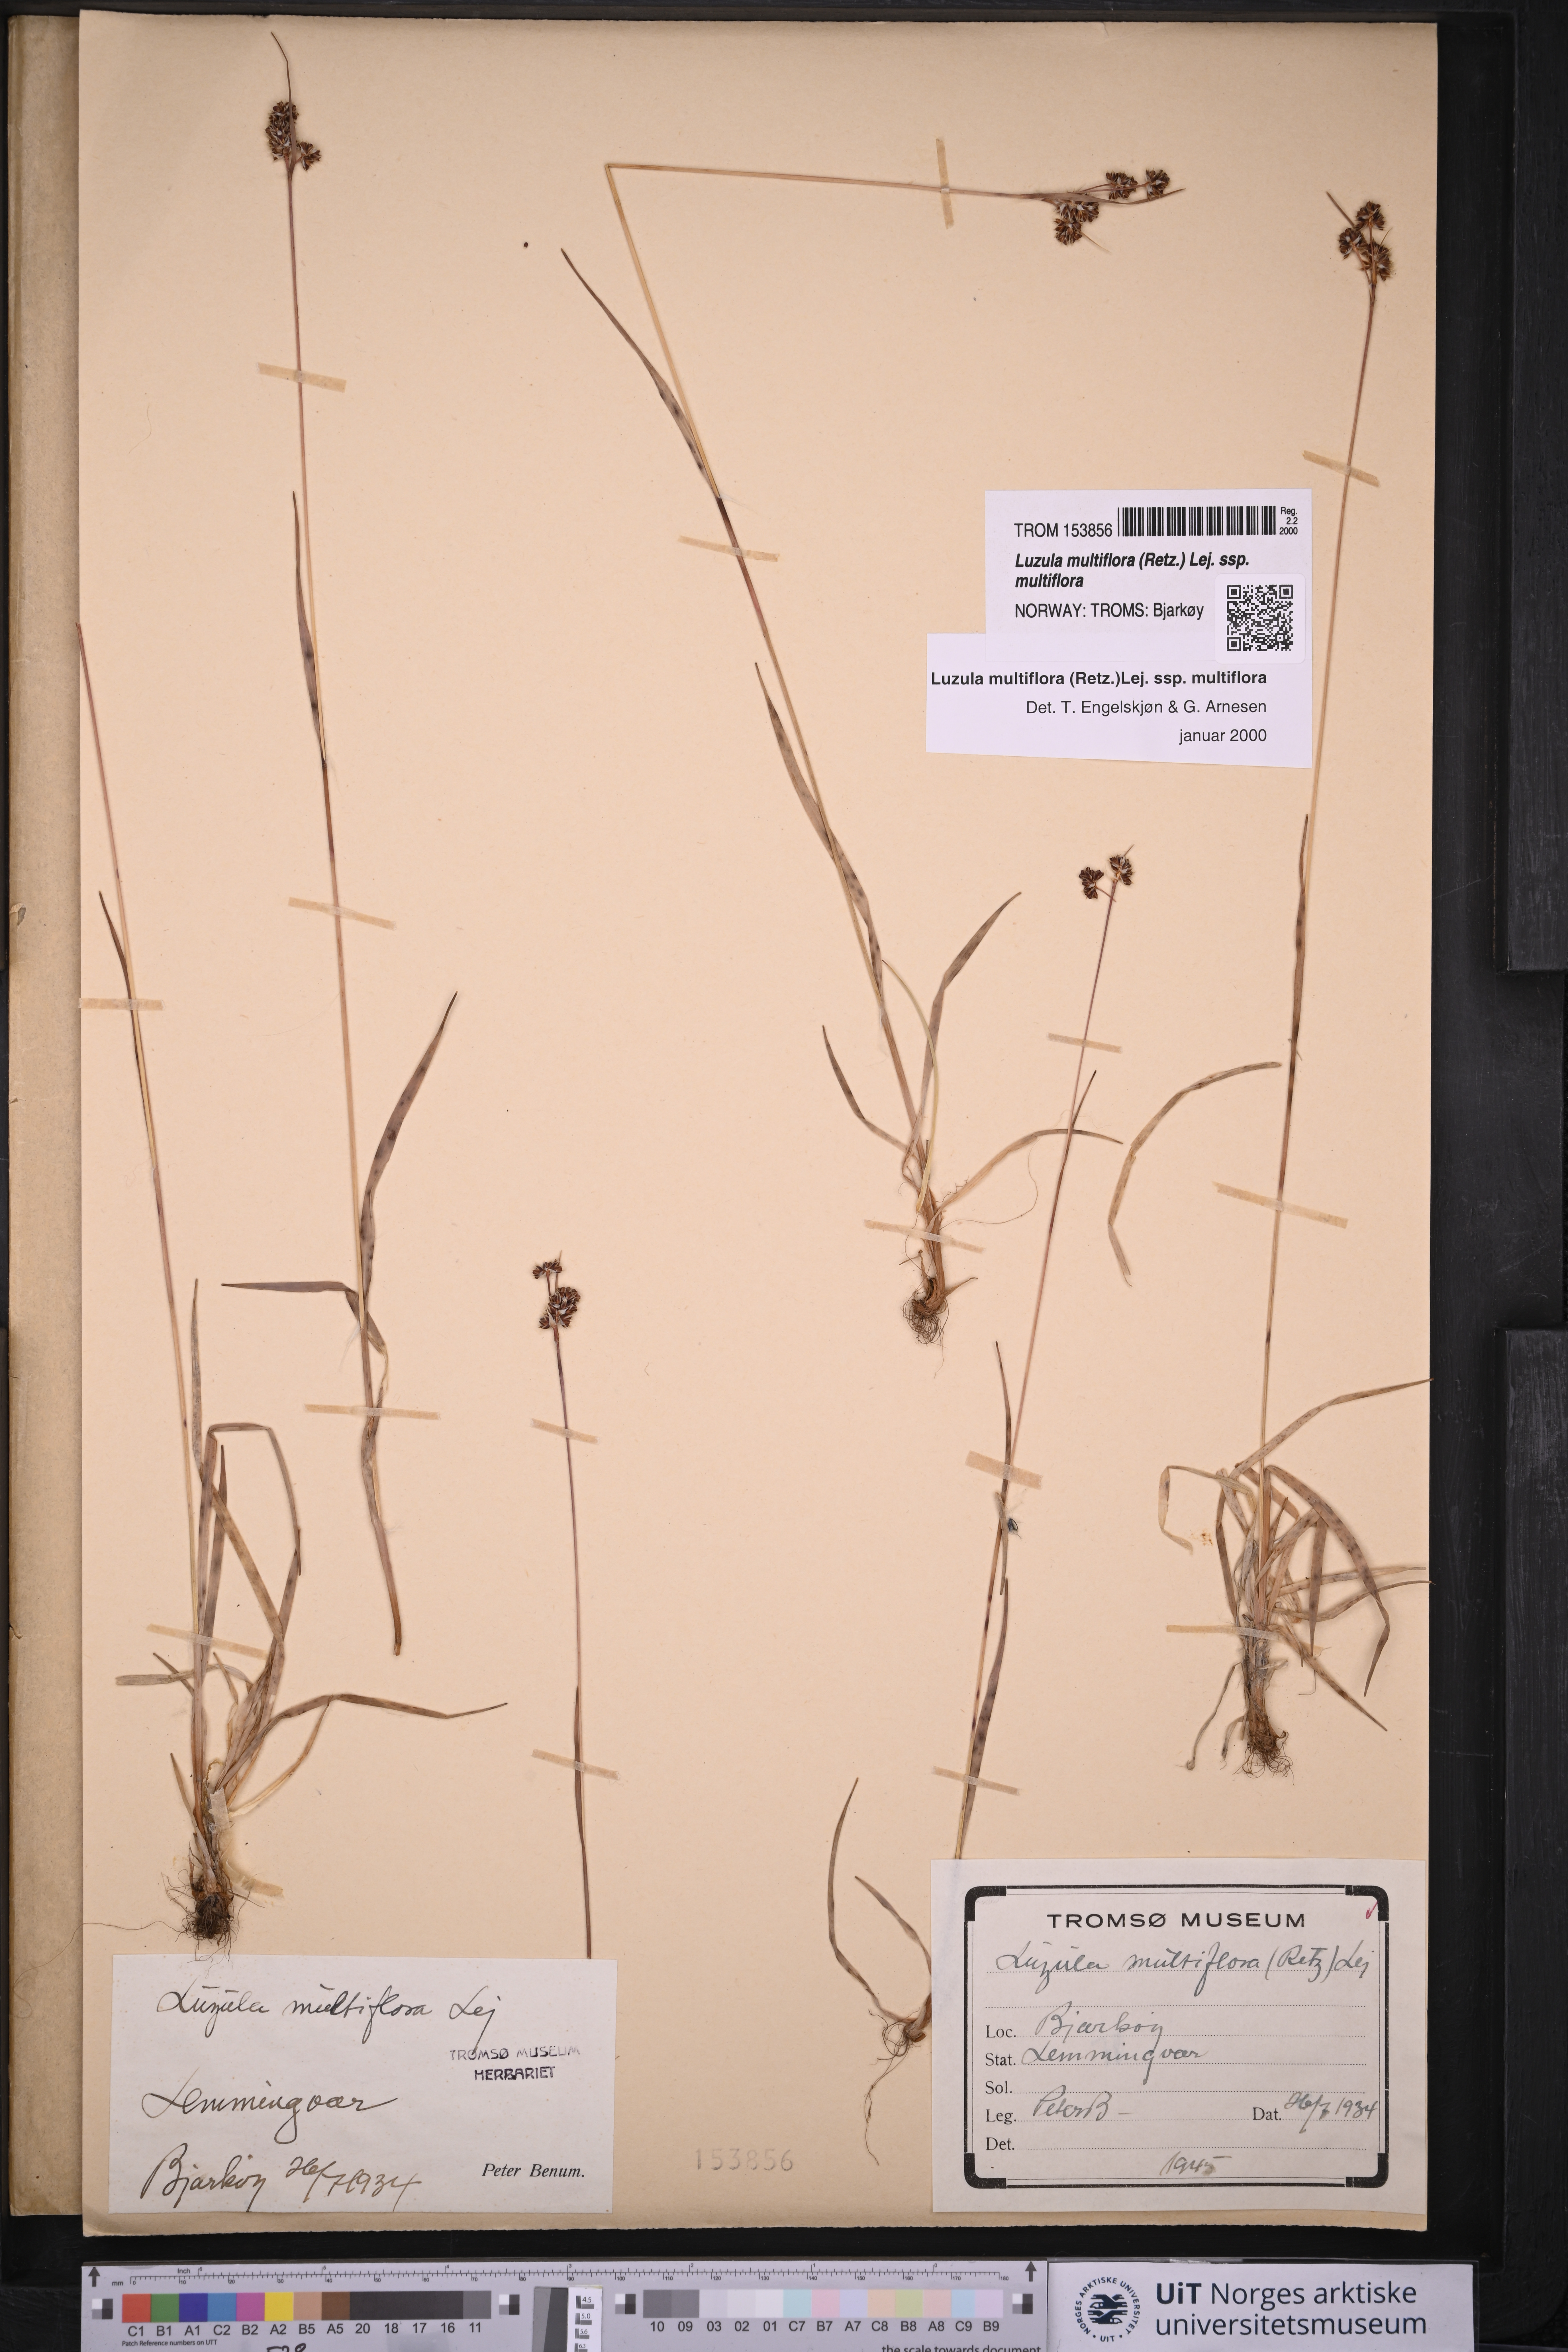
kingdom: Plantae
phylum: Tracheophyta
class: Liliopsida
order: Poales
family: Juncaceae
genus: Luzula
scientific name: Luzula multiflora
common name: Heath wood-rush
